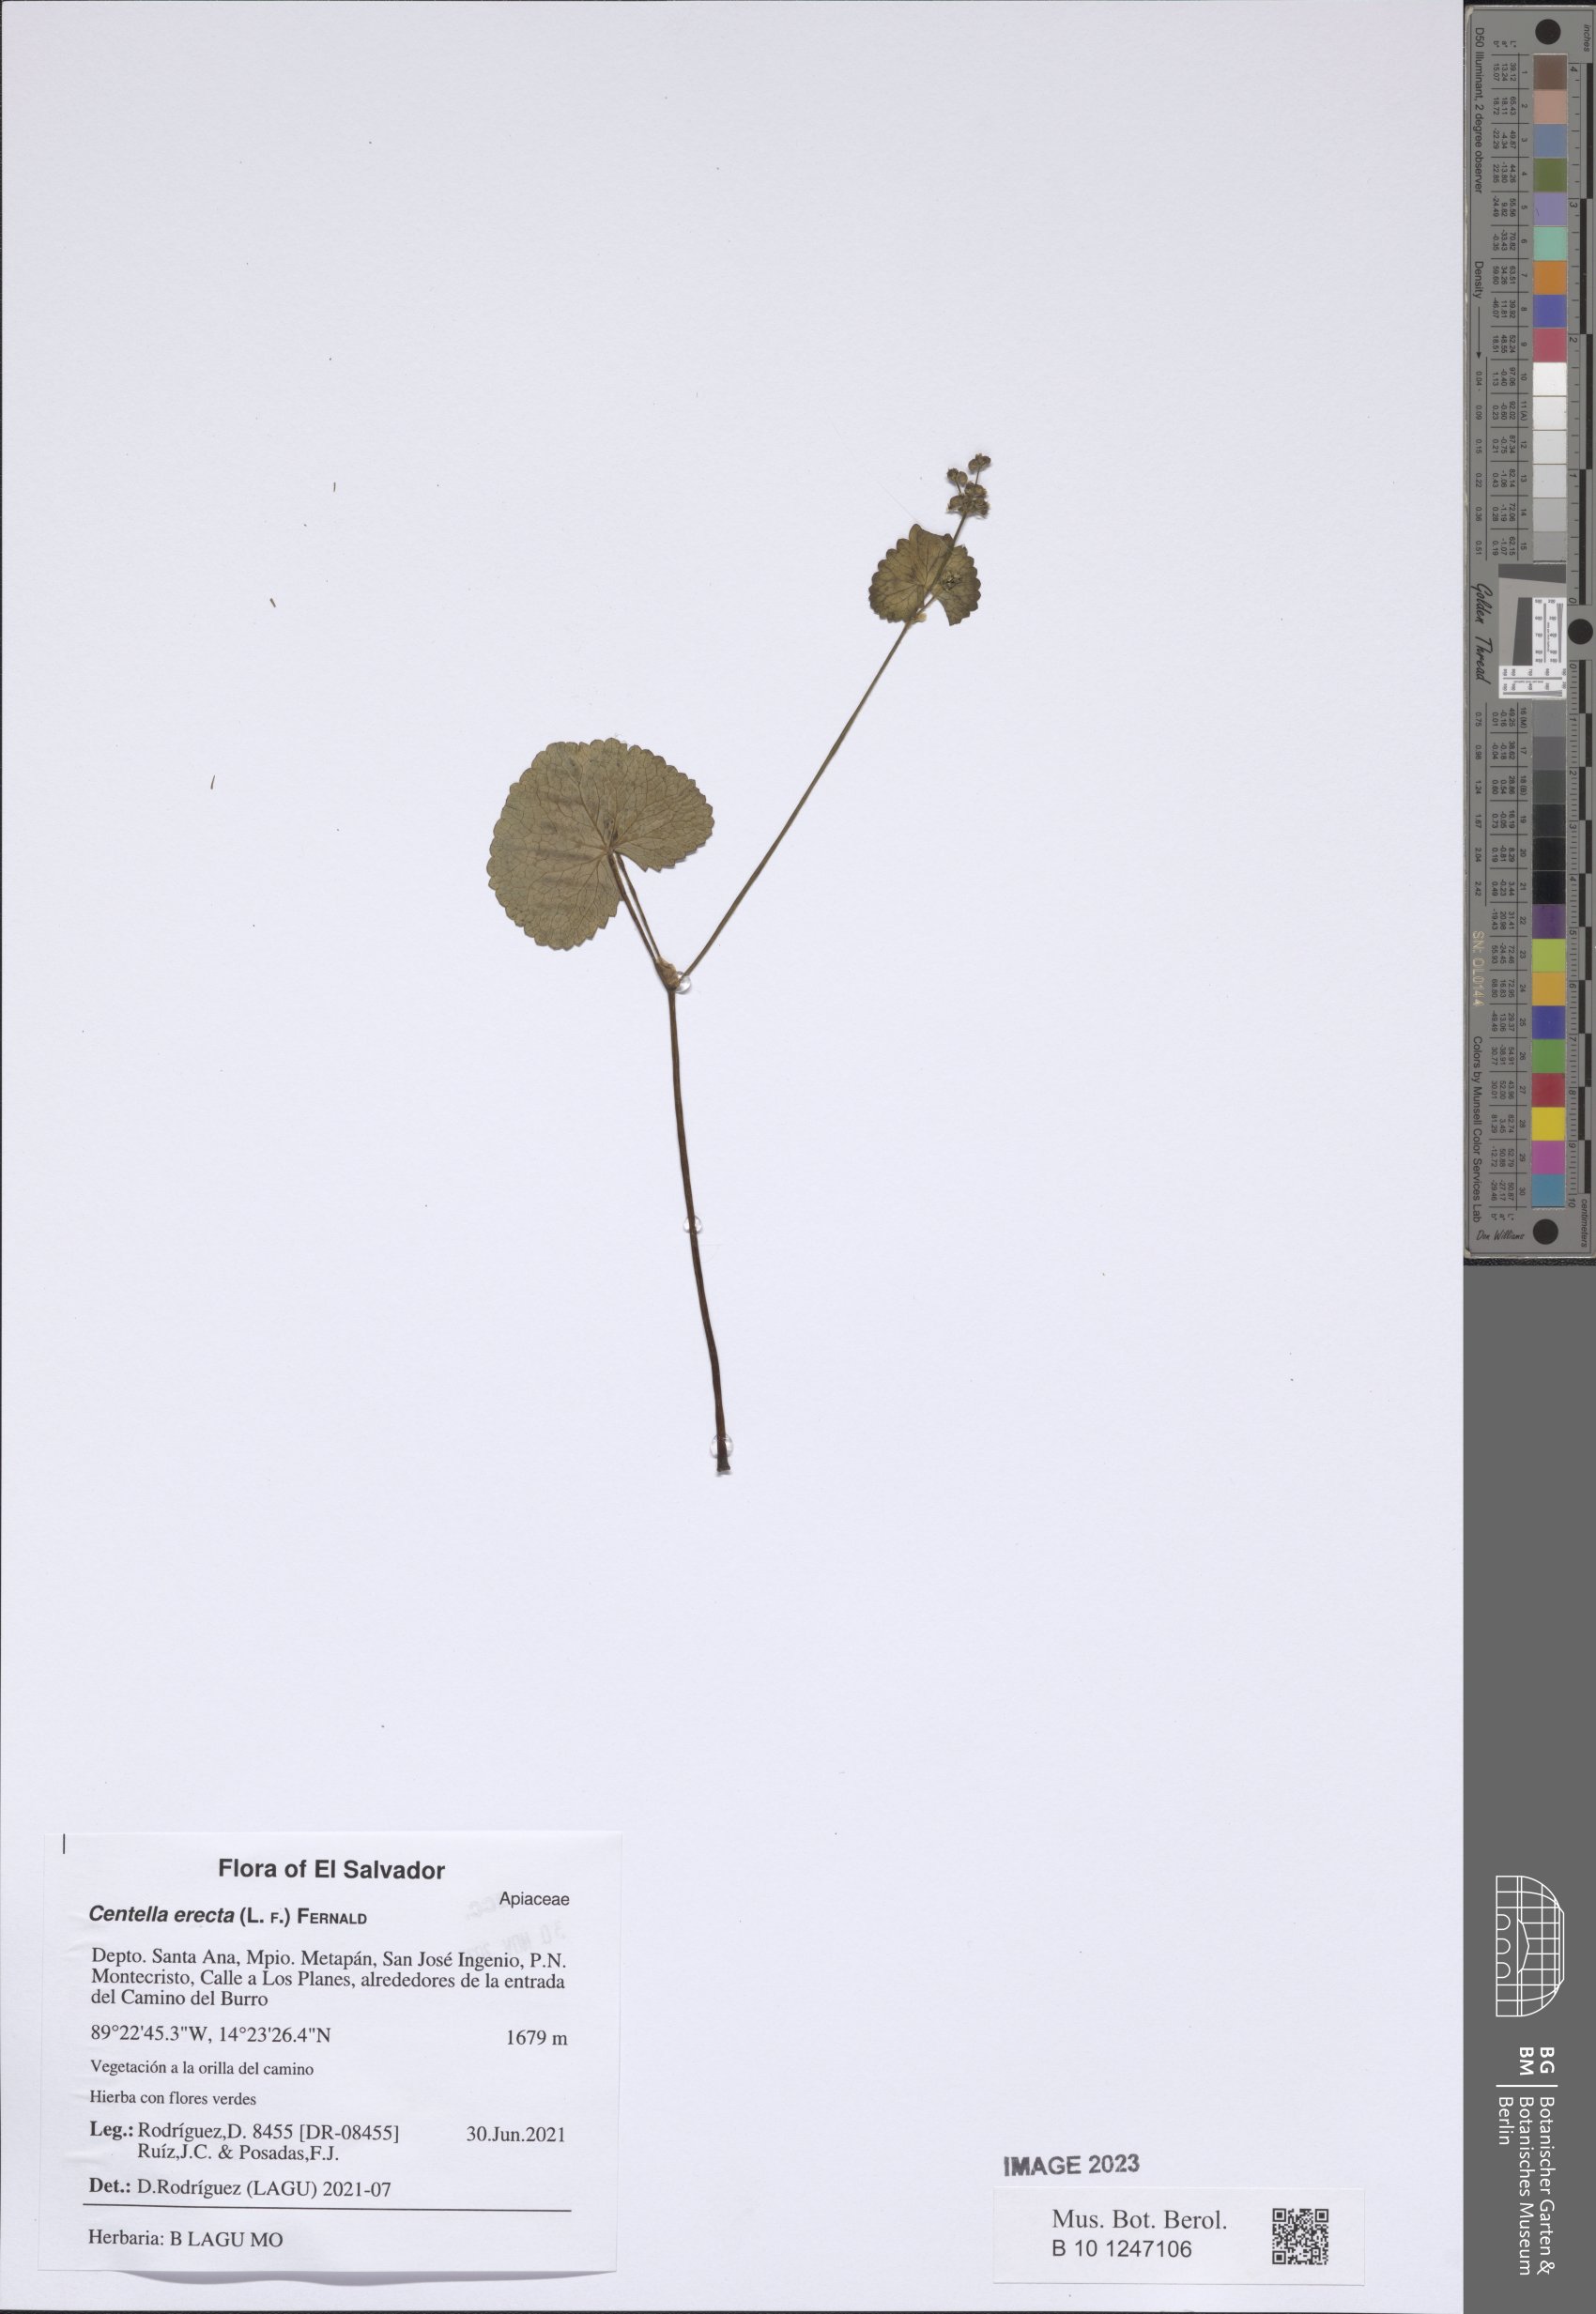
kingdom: Plantae
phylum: Tracheophyta
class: Magnoliopsida
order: Apiales
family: Apiaceae
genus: Centella
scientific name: Centella erecta
